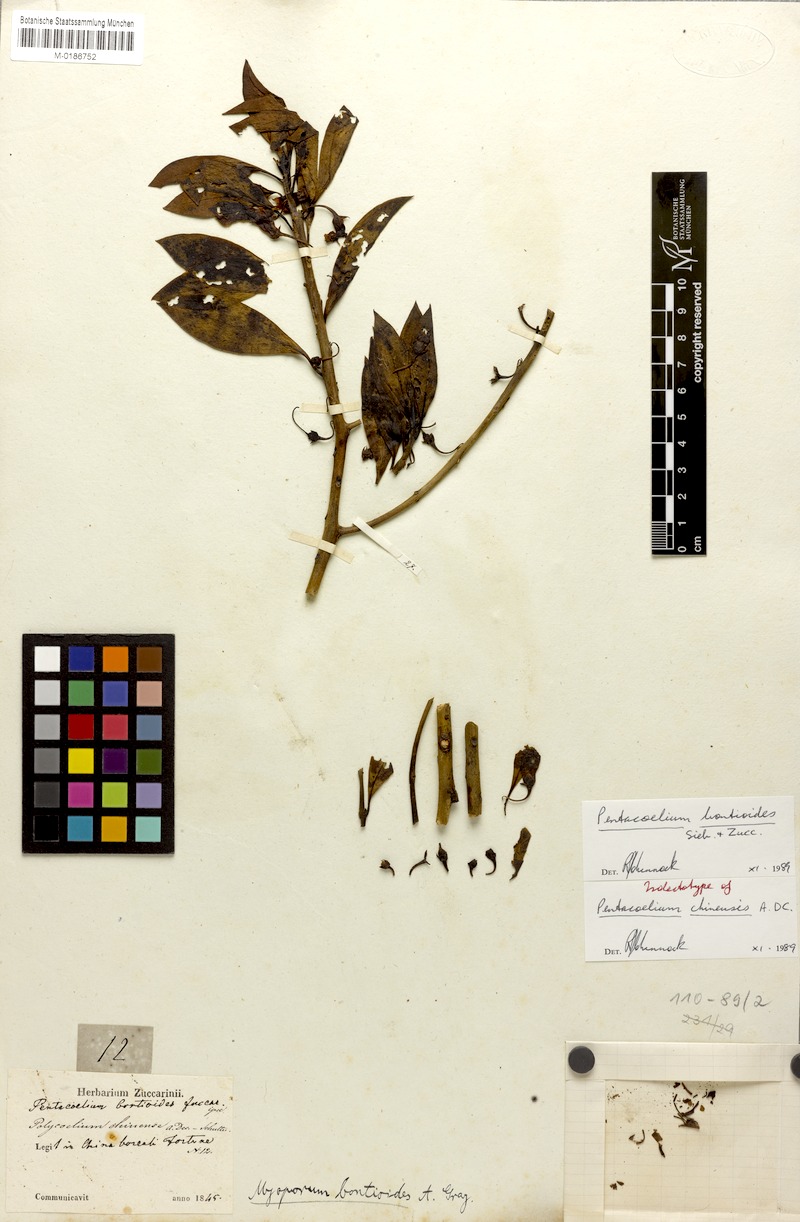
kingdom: Plantae
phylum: Tracheophyta
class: Magnoliopsida
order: Lamiales
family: Scrophulariaceae
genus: Myoporum
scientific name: Myoporum bontioides
